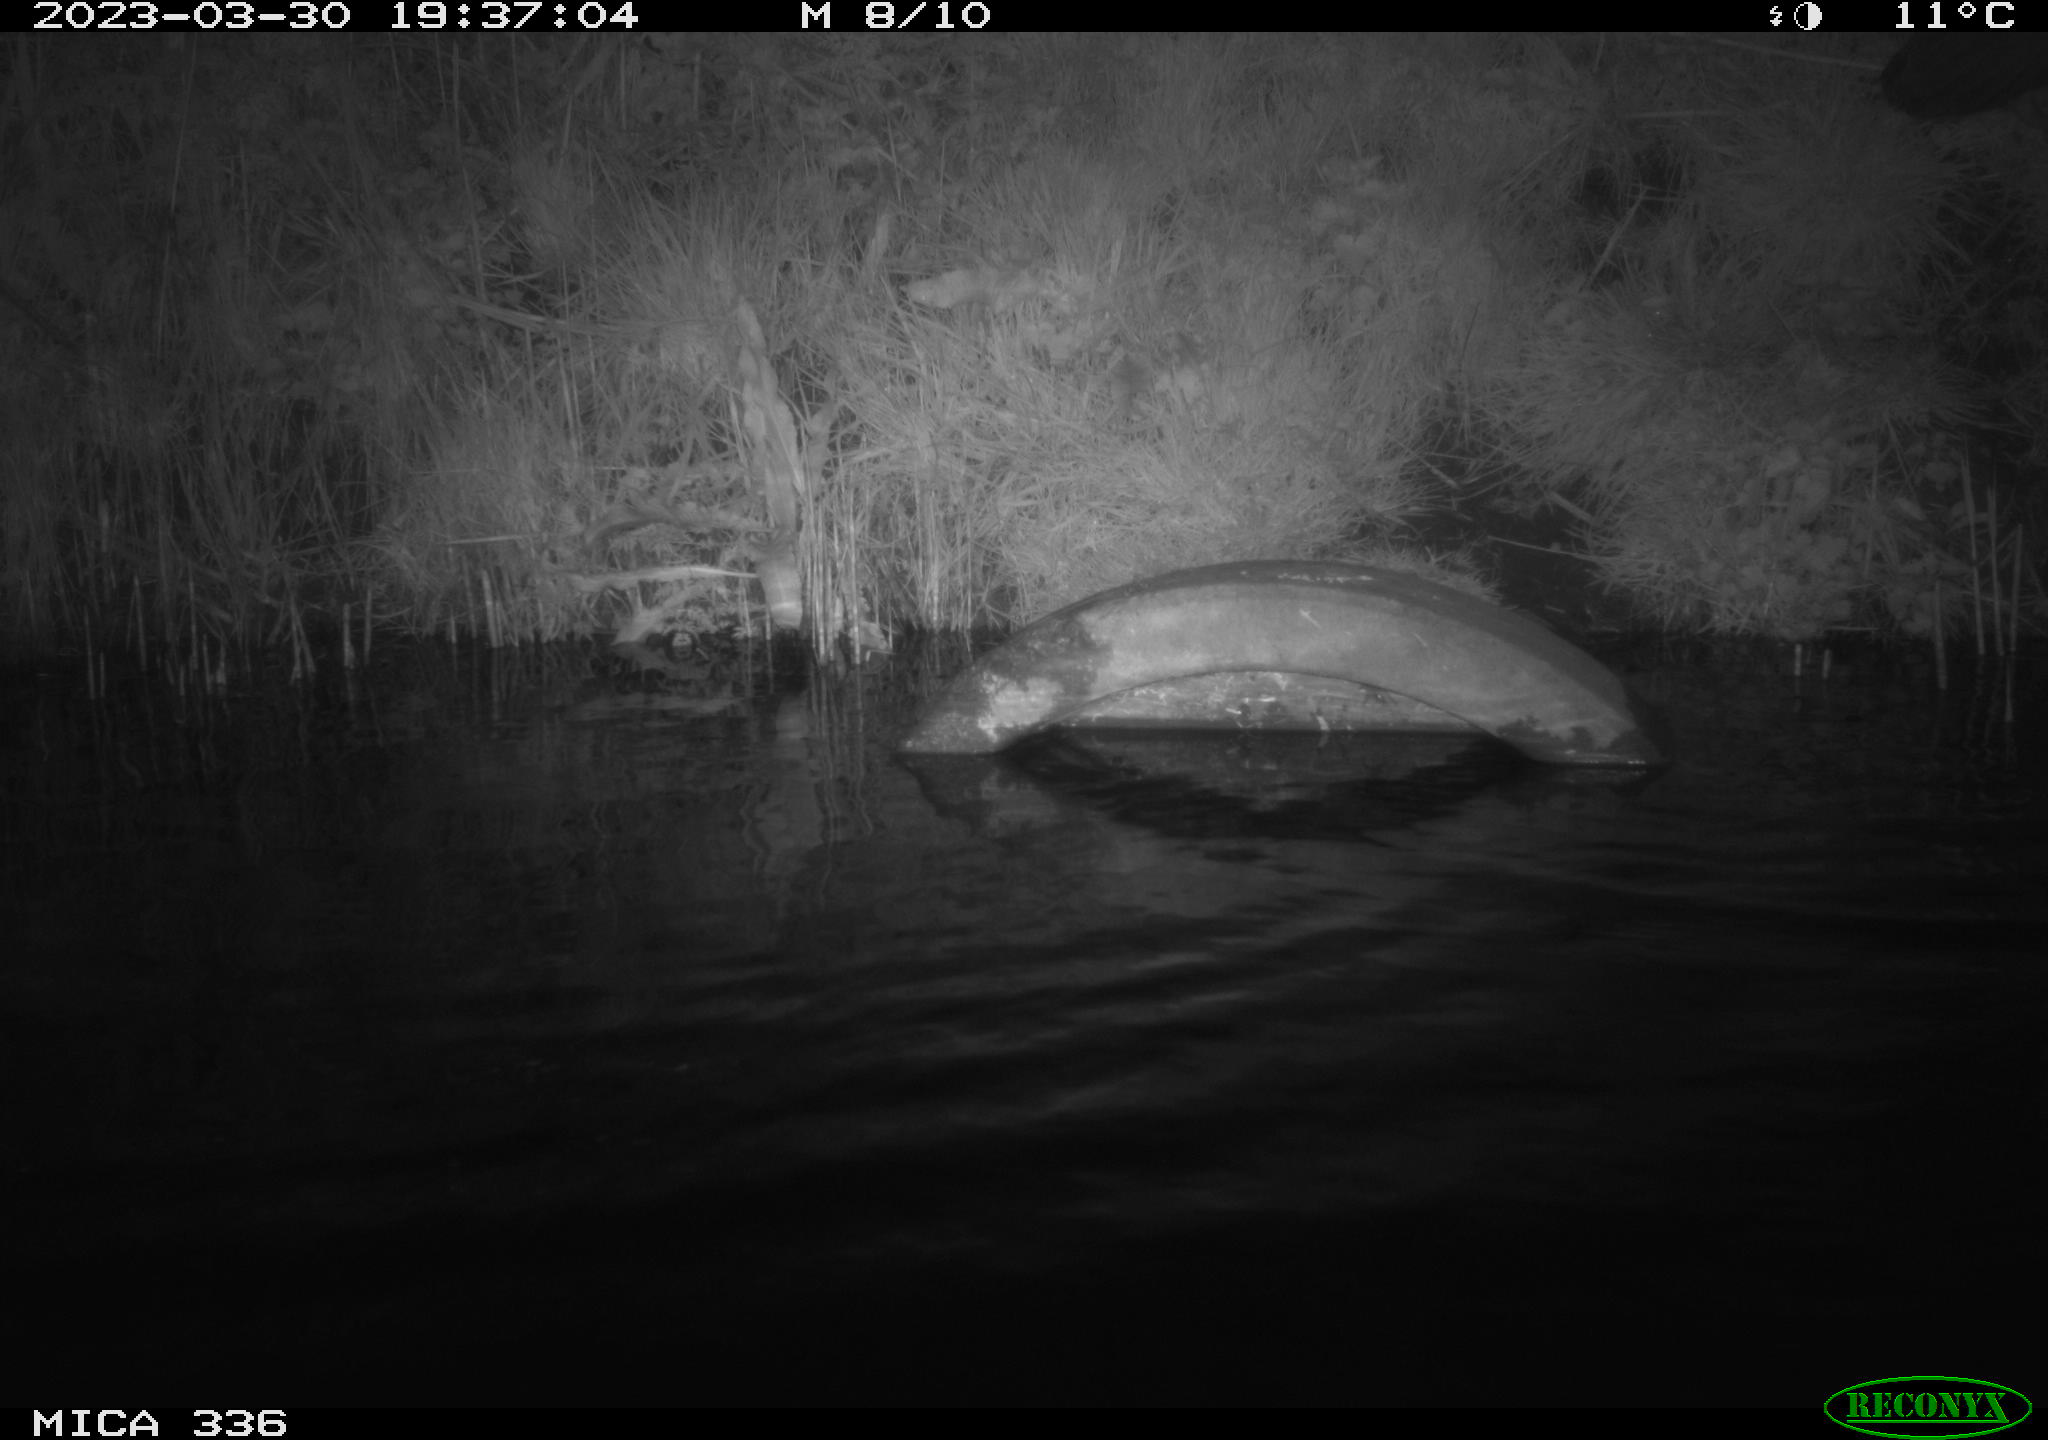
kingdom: Animalia
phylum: Chordata
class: Aves
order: Pelecaniformes
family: Ardeidae
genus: Ardea
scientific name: Ardea cinerea
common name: Grey heron
